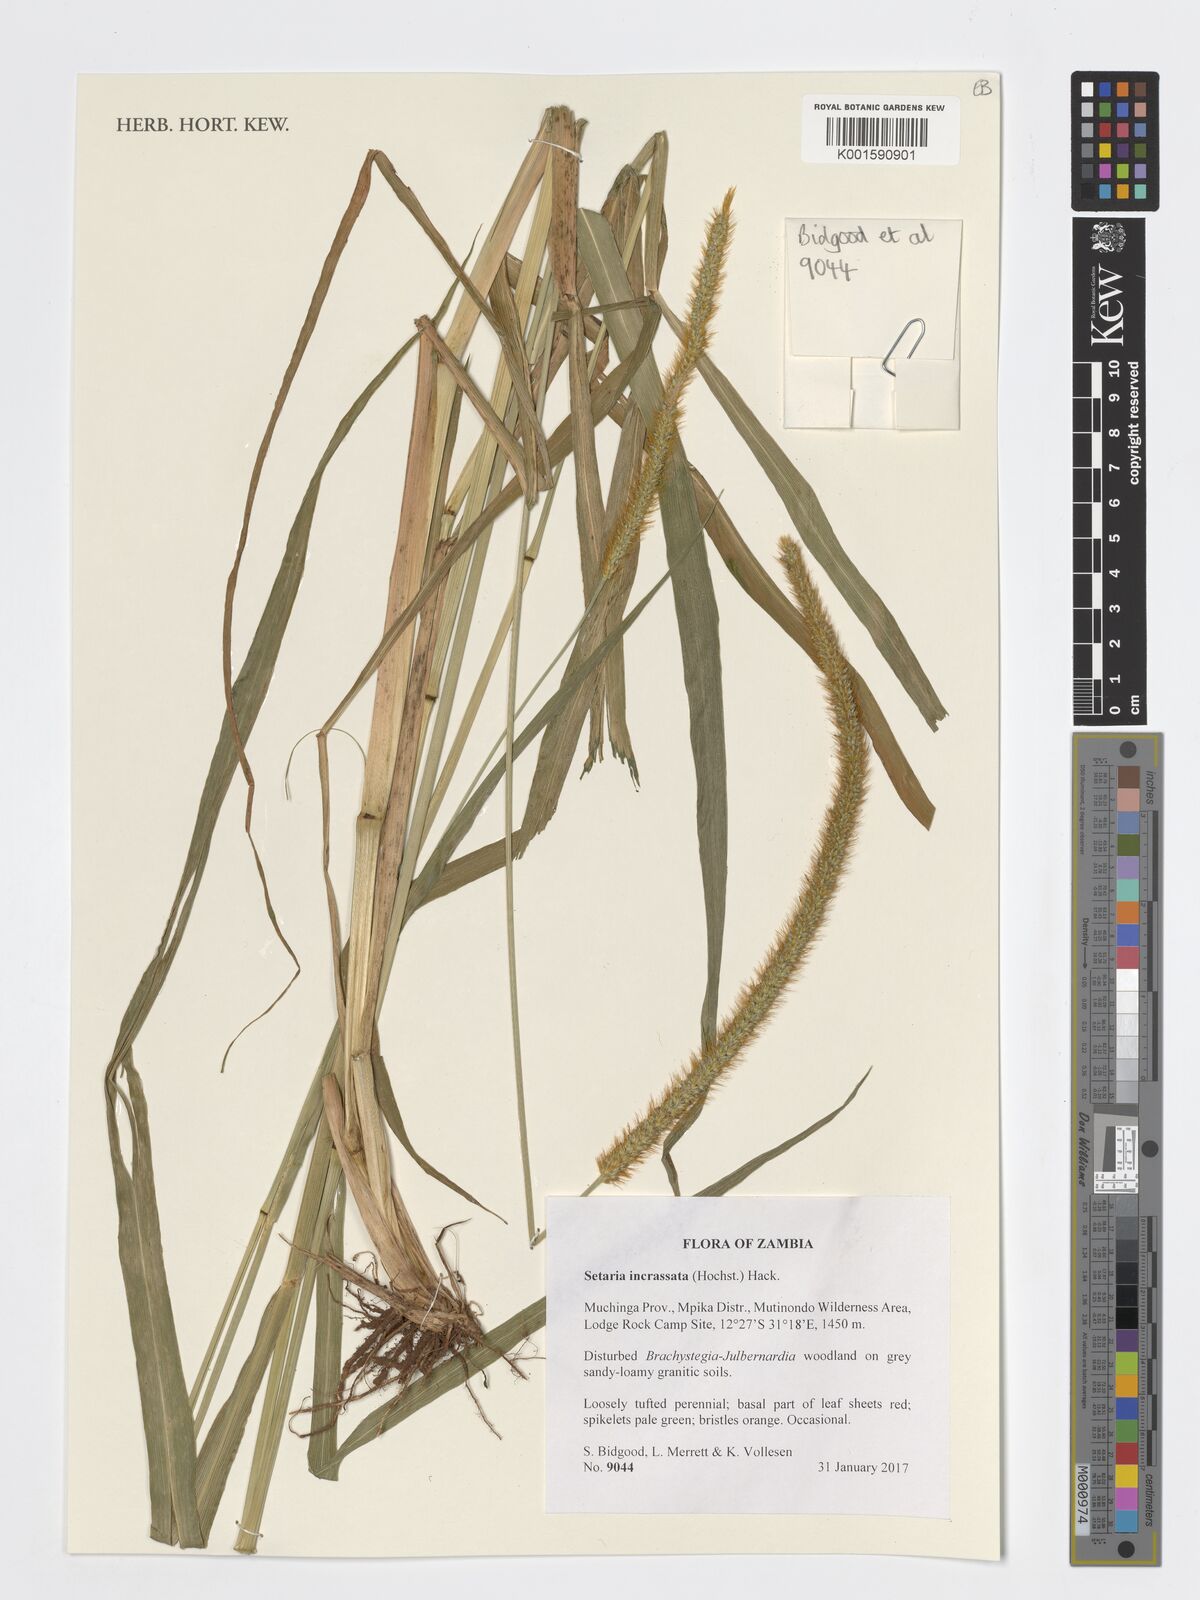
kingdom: Plantae
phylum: Tracheophyta
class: Liliopsida
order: Poales
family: Poaceae
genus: Setaria
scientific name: Setaria incrassata
